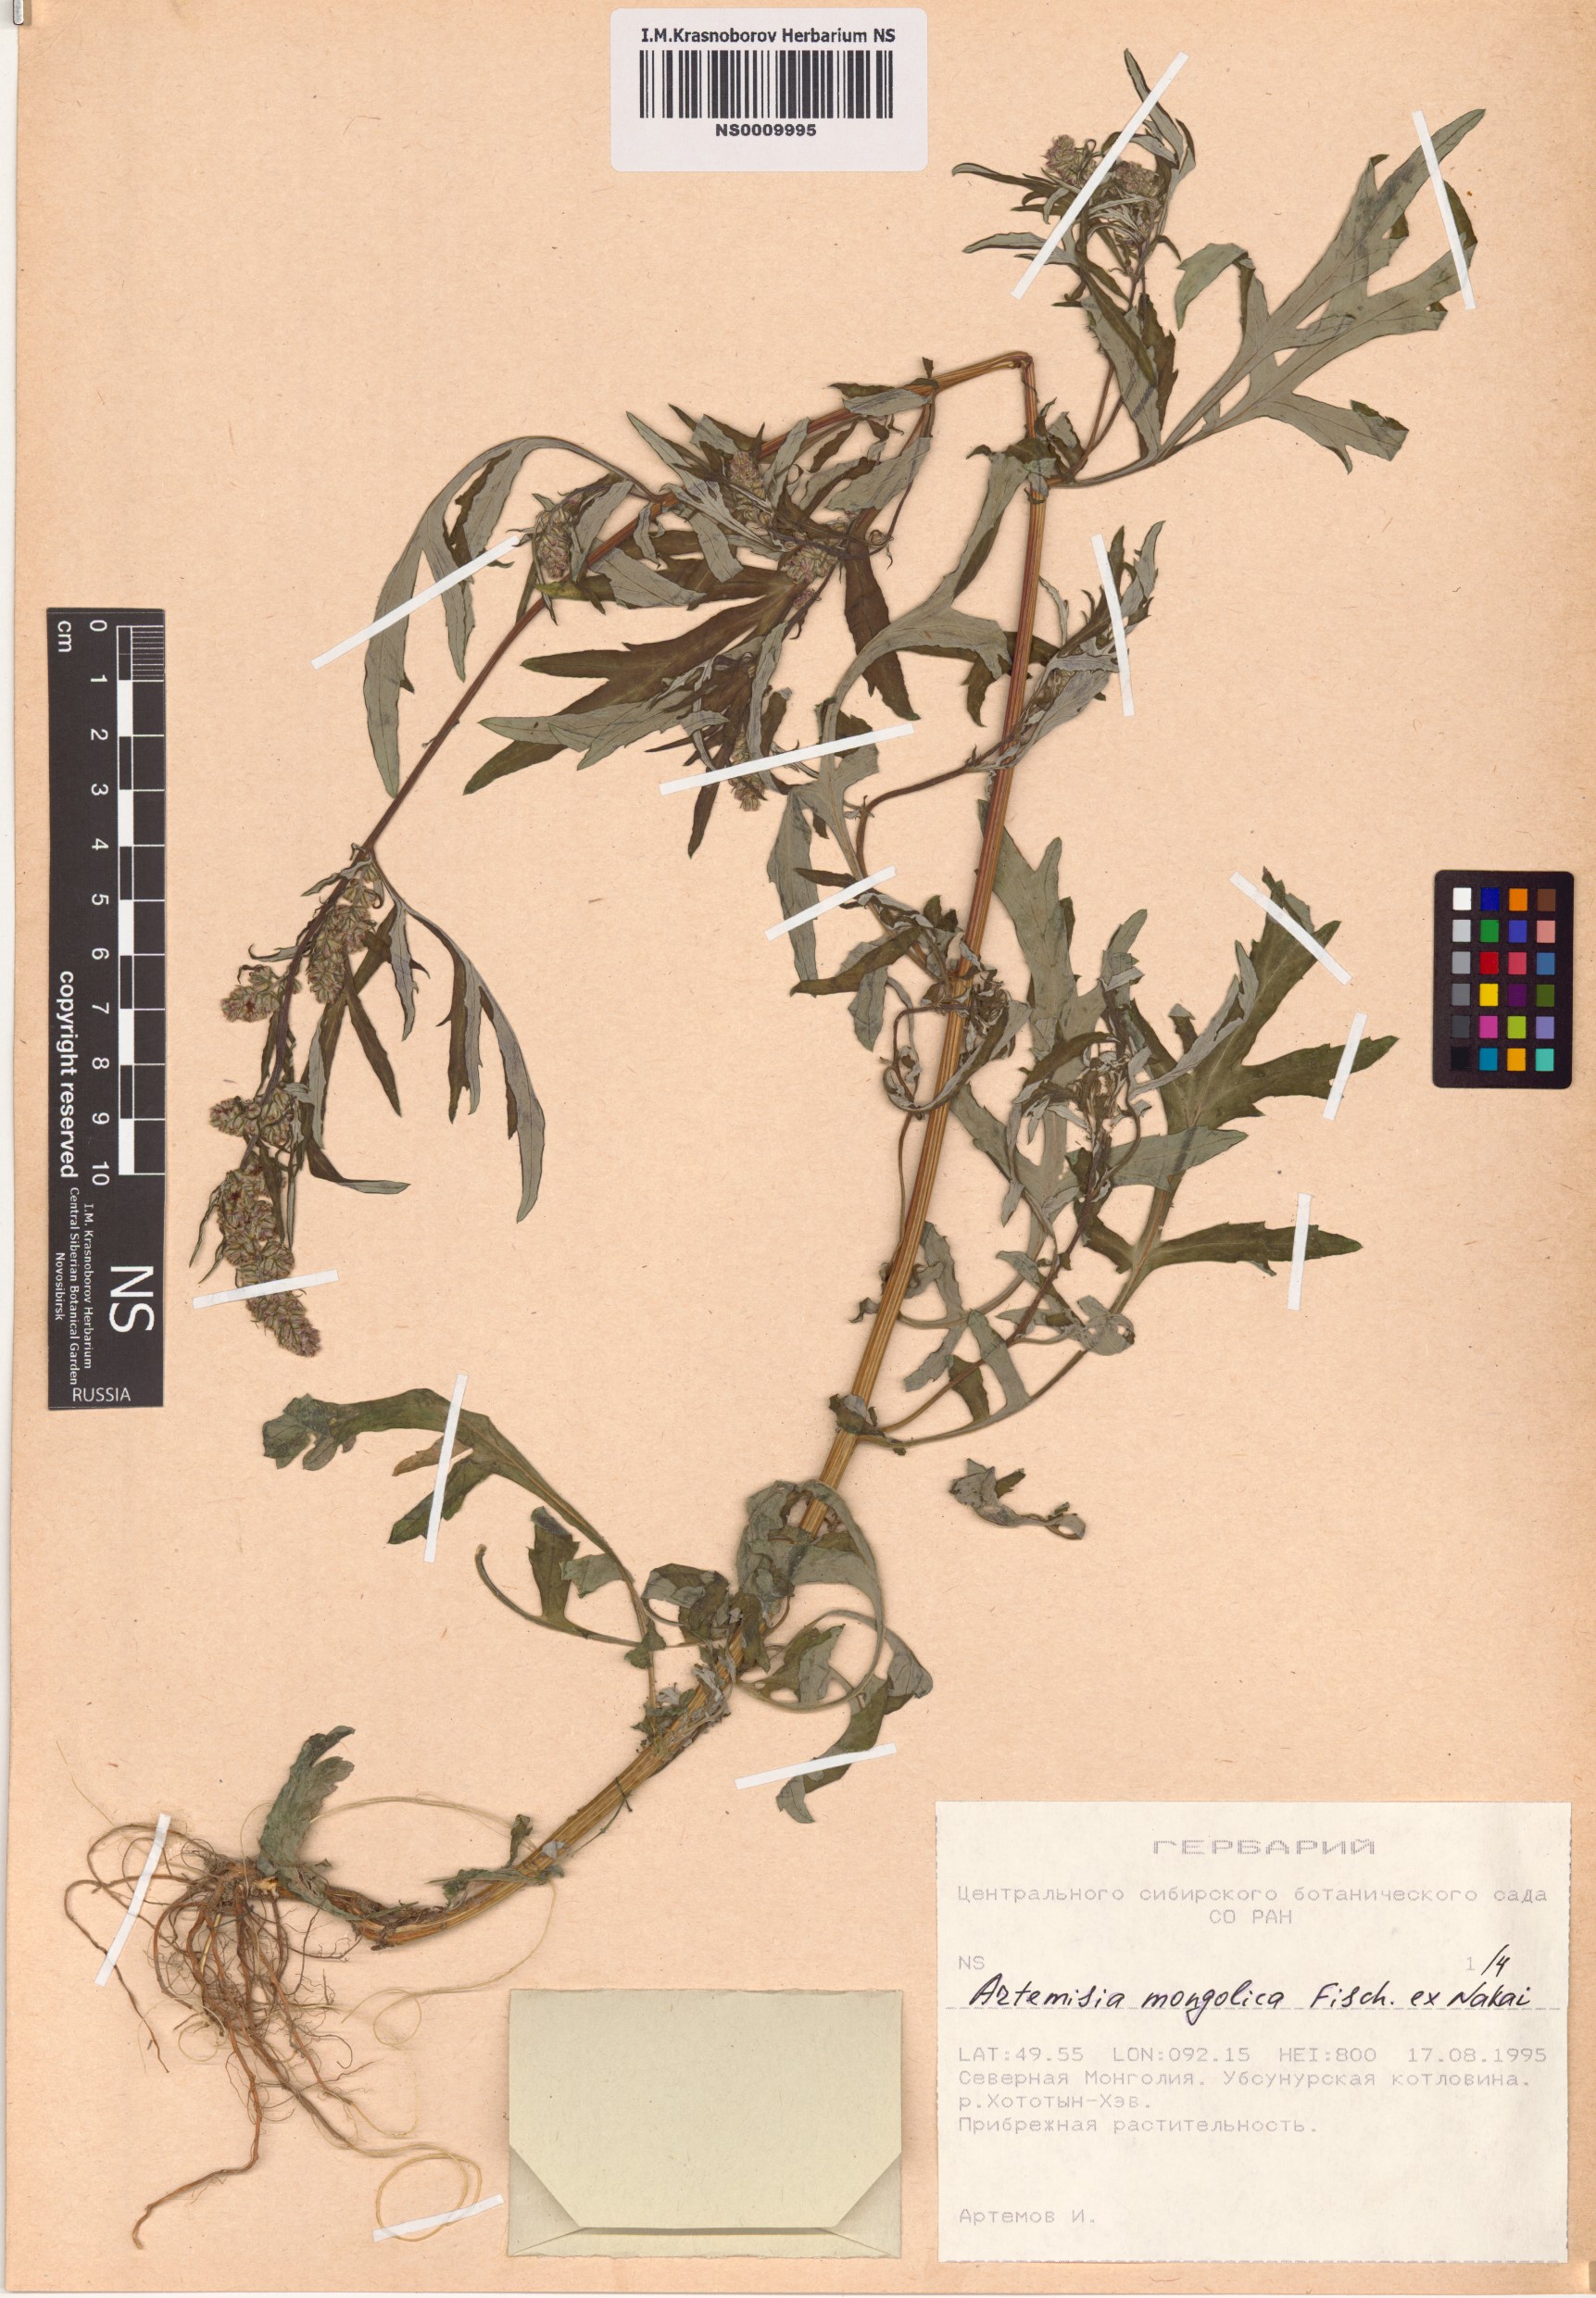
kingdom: Plantae
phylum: Tracheophyta
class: Magnoliopsida
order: Asterales
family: Asteraceae
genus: Artemisia
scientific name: Artemisia mongolica
